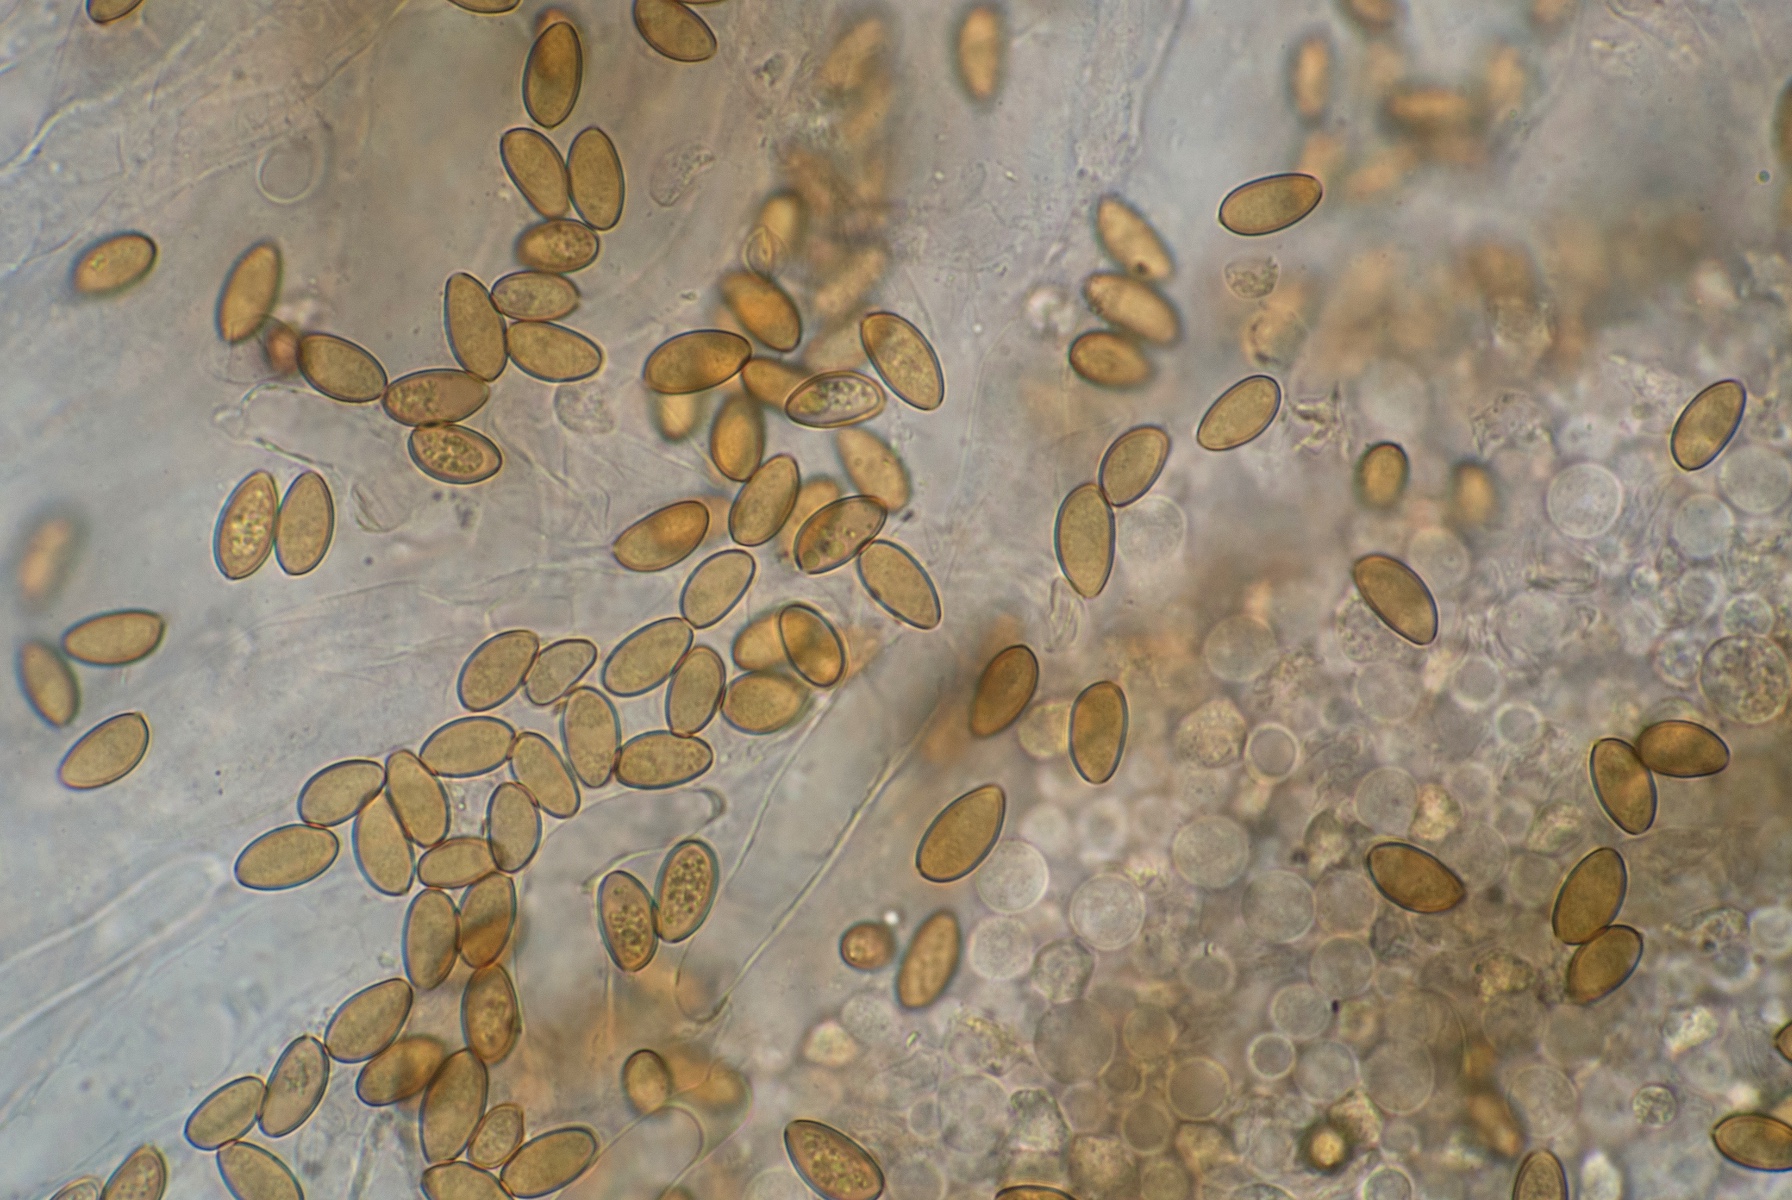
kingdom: Fungi
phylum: Basidiomycota
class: Agaricomycetes
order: Agaricales
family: Bolbitiaceae
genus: Conocybe
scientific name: Conocybe nemoralis
